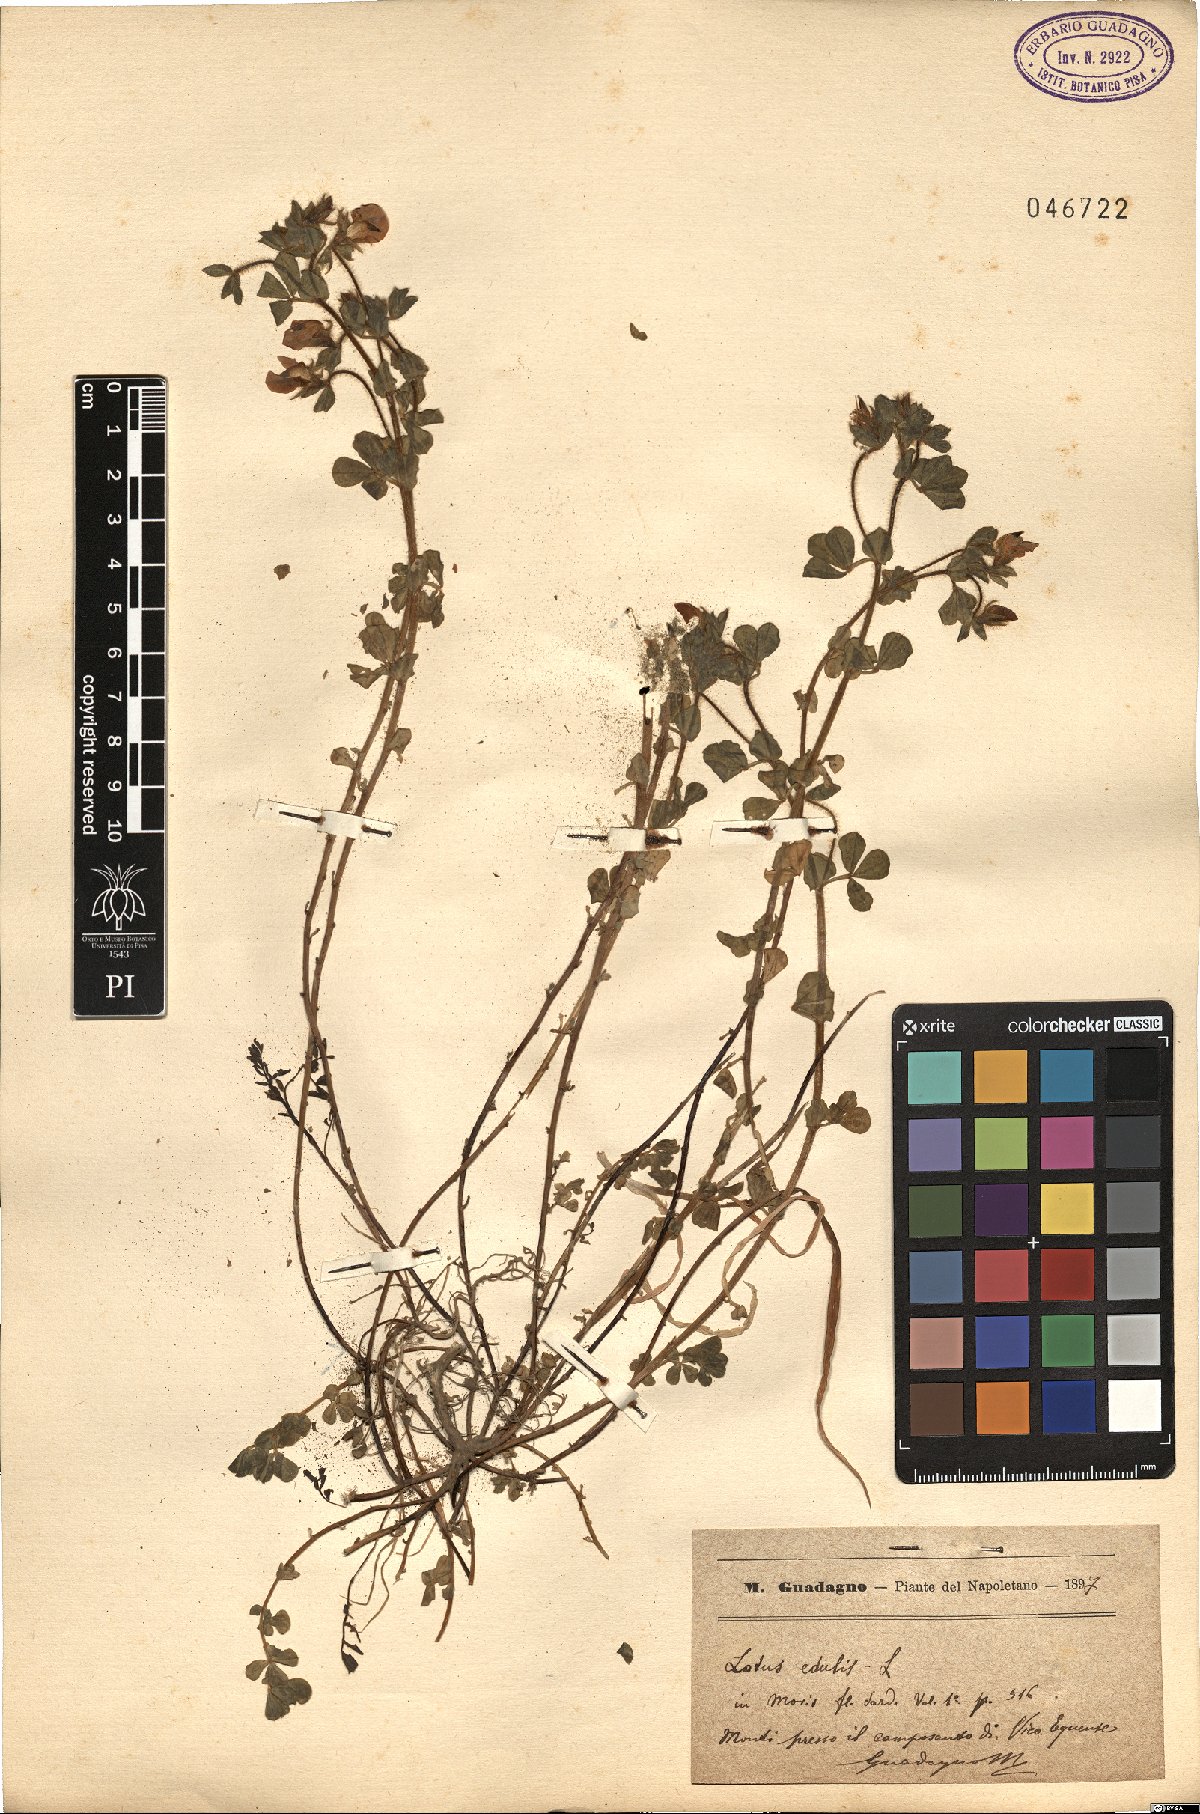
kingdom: Plantae
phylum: Tracheophyta
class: Magnoliopsida
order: Fabales
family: Fabaceae
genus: Lotus
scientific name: Lotus edulis
